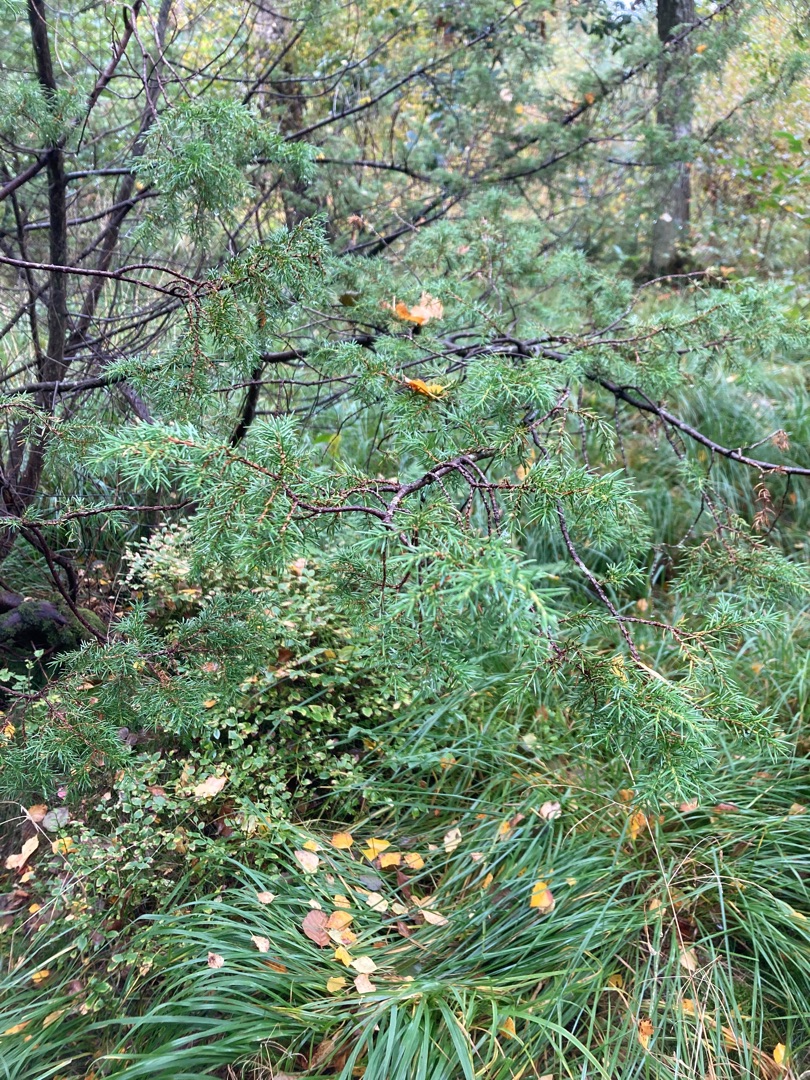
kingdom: Plantae
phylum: Tracheophyta
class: Pinopsida
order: Pinales
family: Cupressaceae
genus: Juniperus
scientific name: Juniperus communis
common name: Almindelig ene
